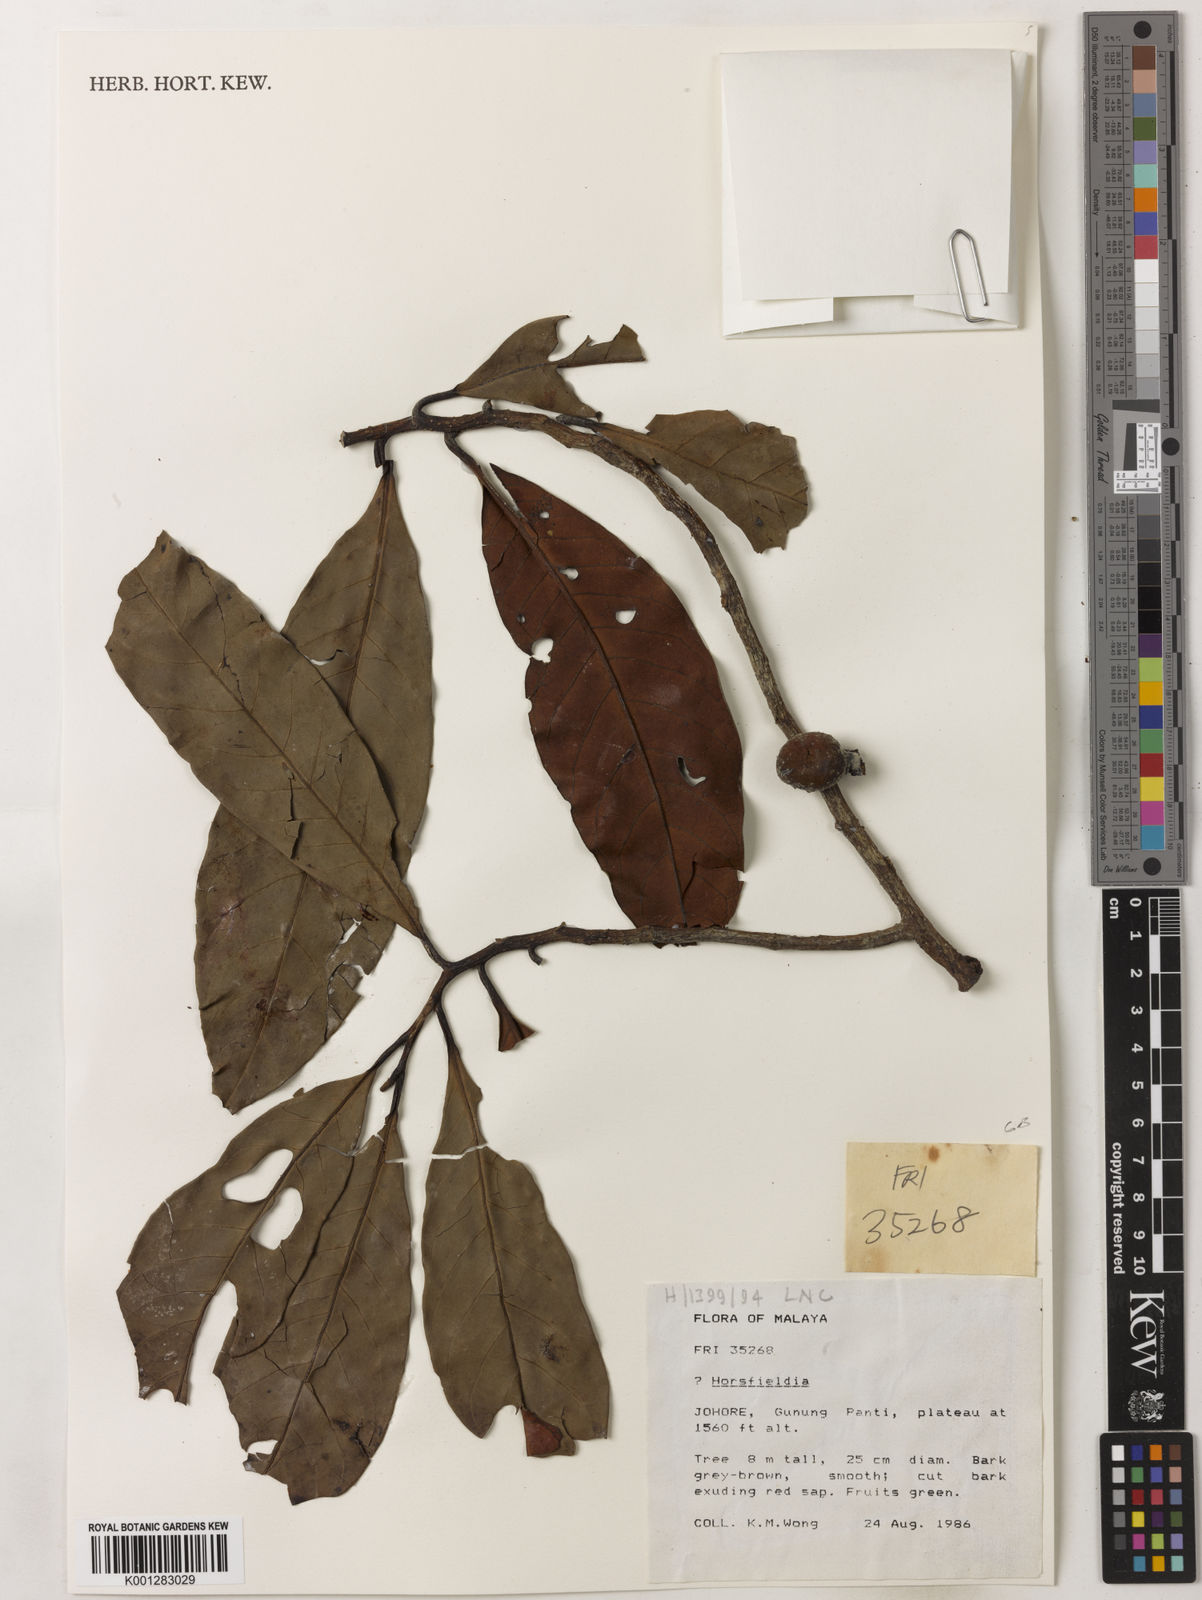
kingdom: Plantae
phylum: Tracheophyta
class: Magnoliopsida
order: Magnoliales
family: Myristicaceae
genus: Horsfieldia
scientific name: Horsfieldia
